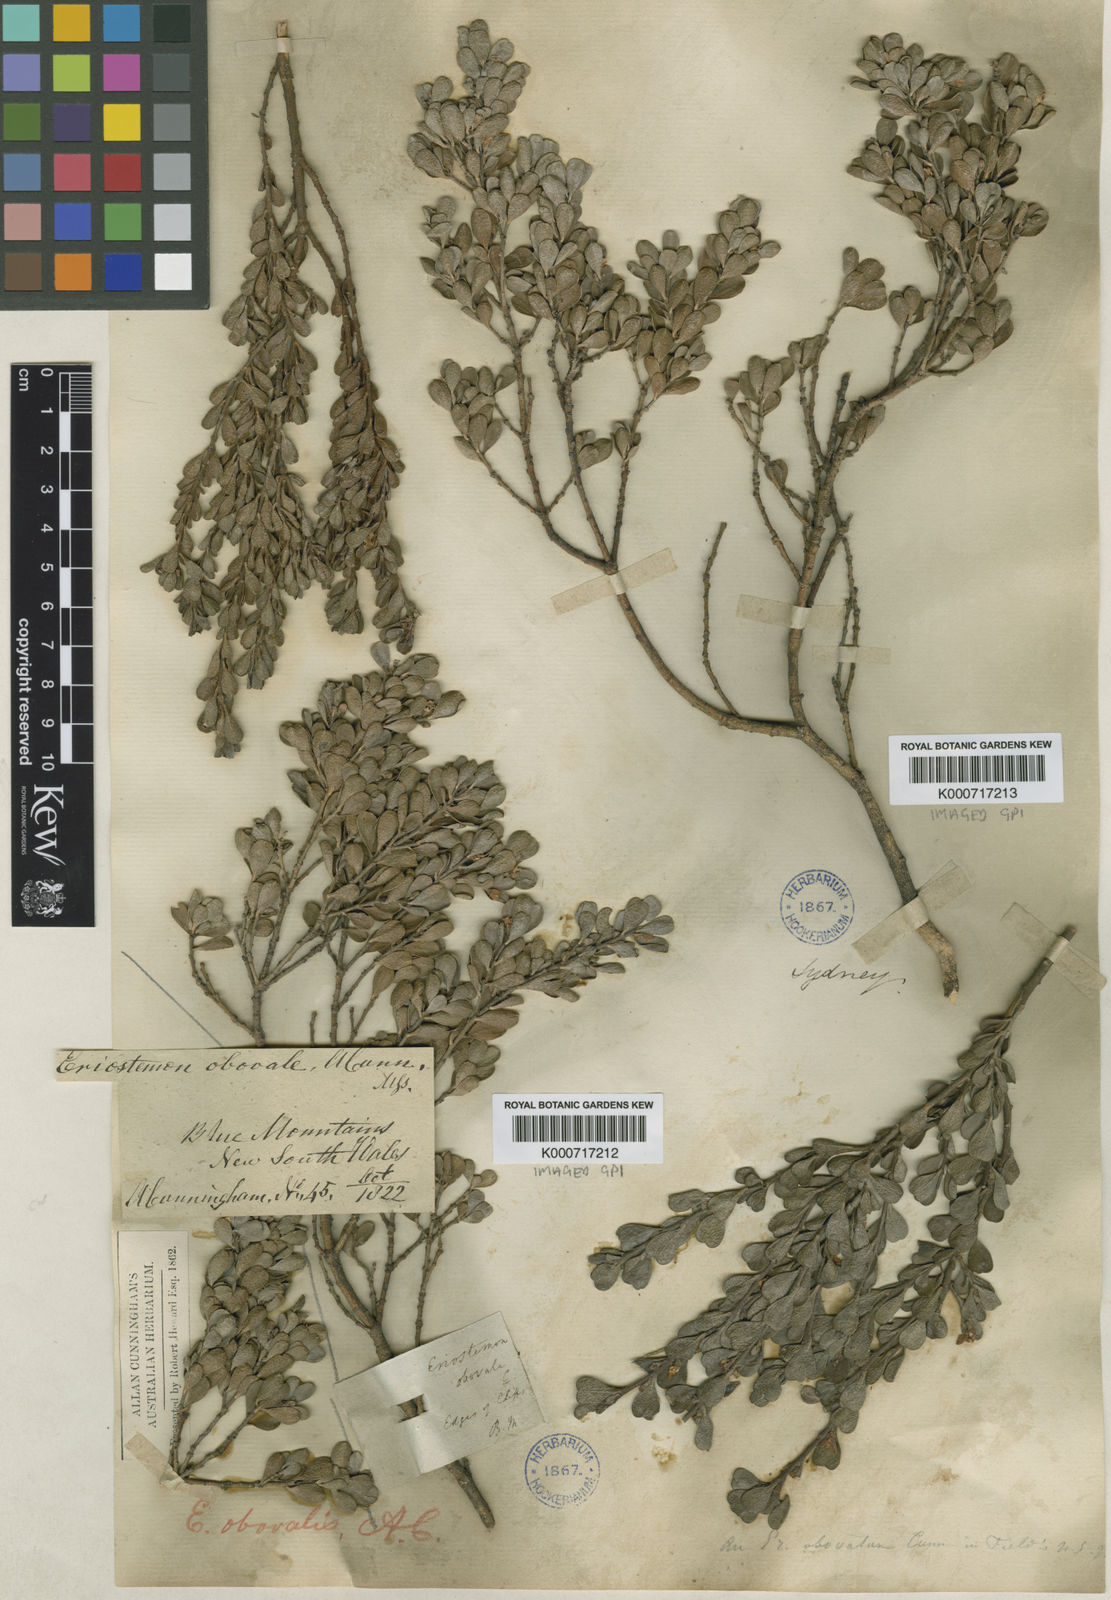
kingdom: Plantae
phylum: Tracheophyta
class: Magnoliopsida
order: Sapindales
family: Rutaceae
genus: Philotheca
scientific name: Philotheca obovalis
